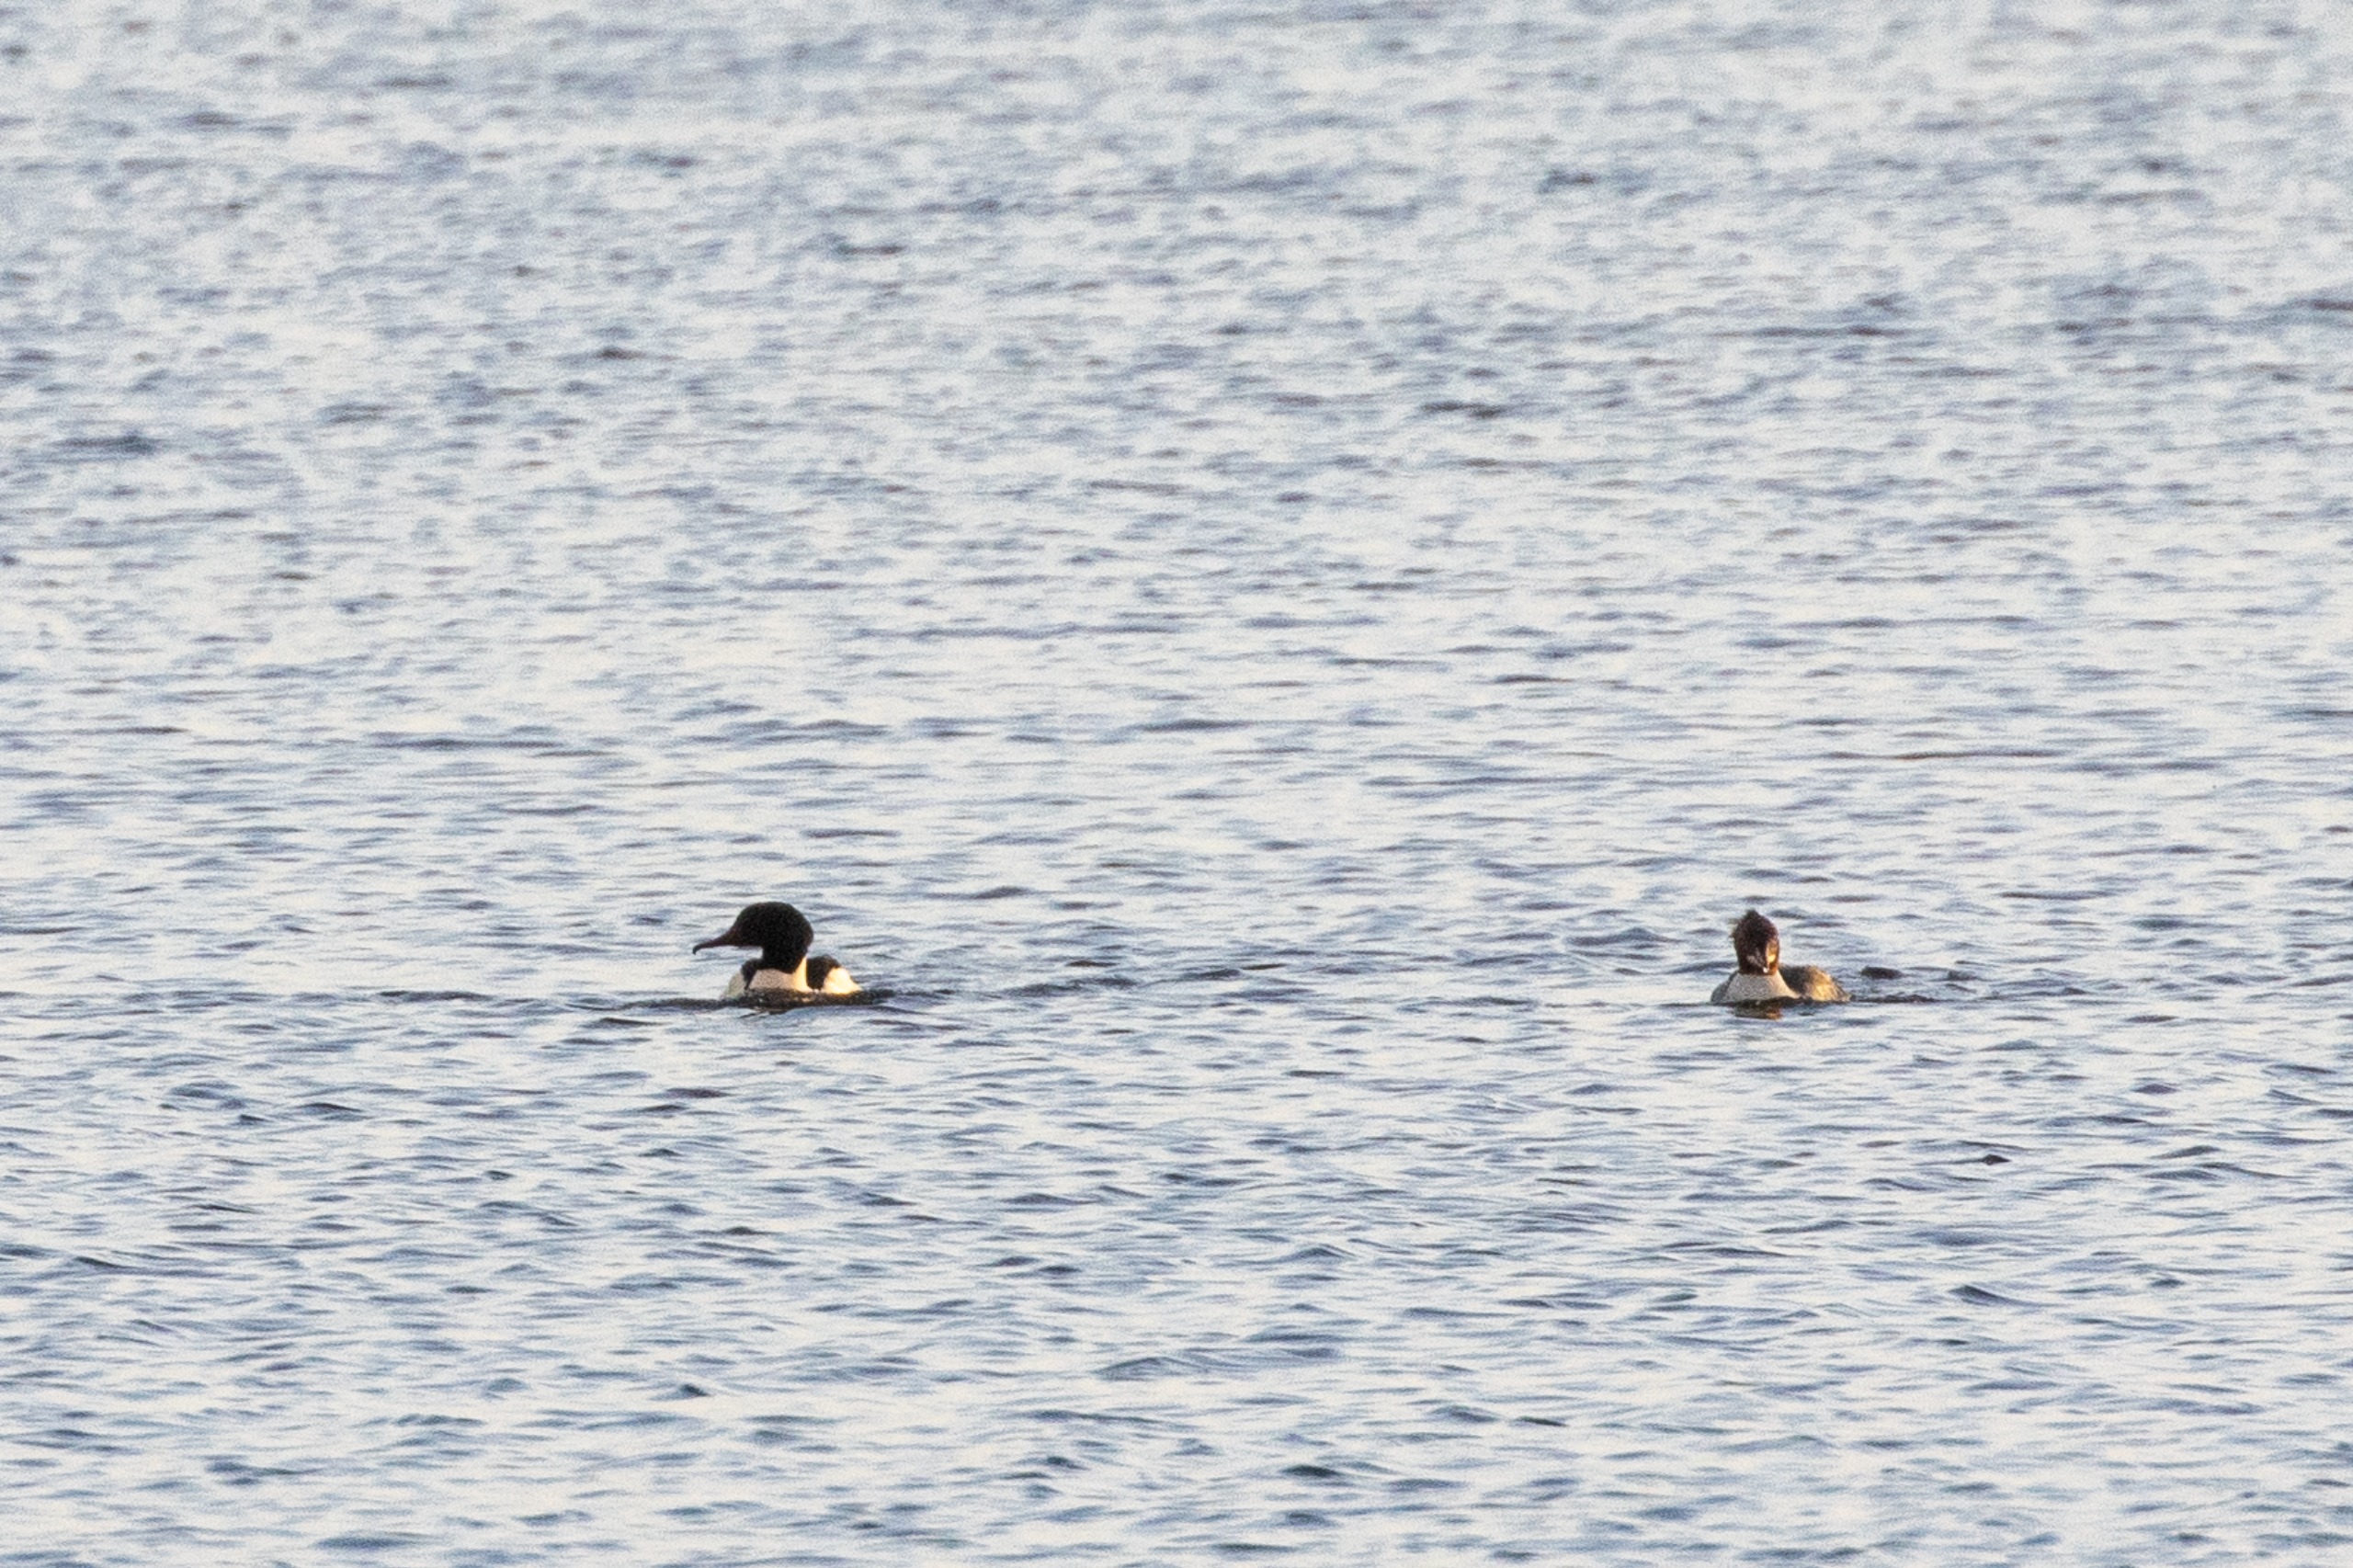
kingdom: Animalia
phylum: Chordata
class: Aves
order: Anseriformes
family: Anatidae
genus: Mergus
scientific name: Mergus merganser
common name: Stor skallesluger
